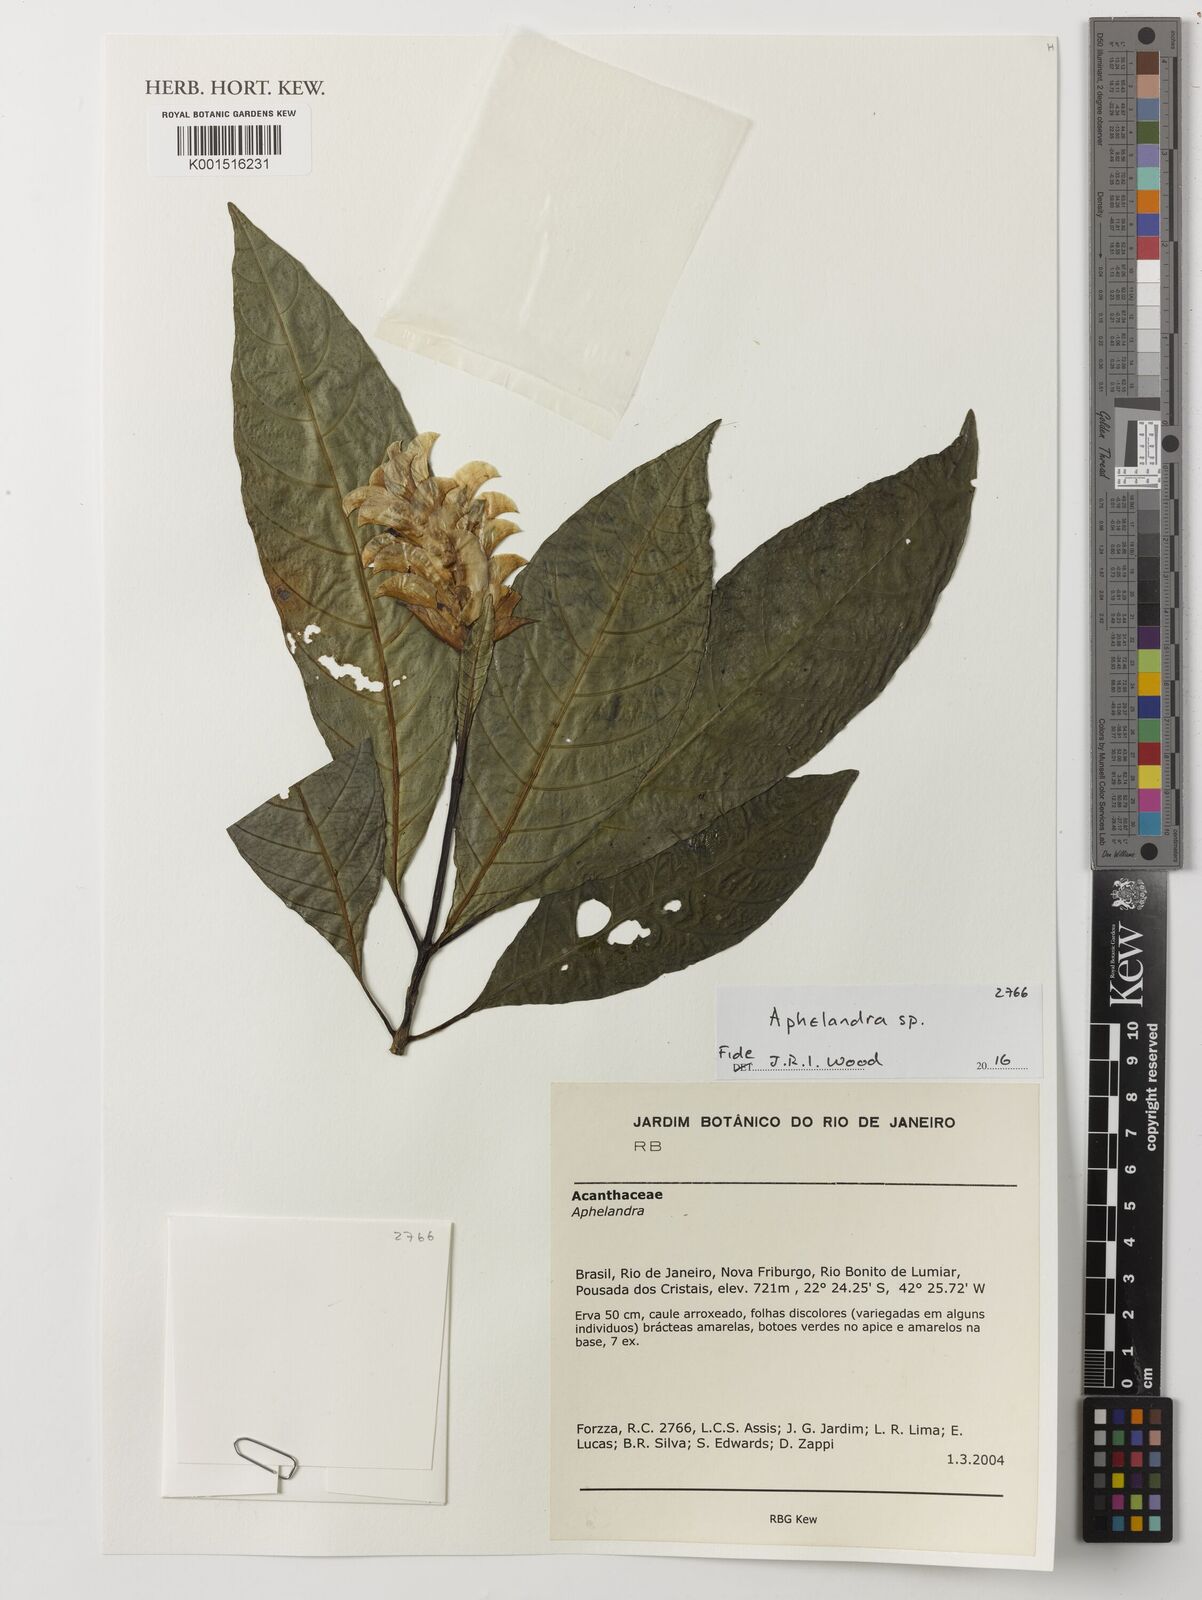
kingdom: Plantae
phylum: Tracheophyta
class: Magnoliopsida
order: Lamiales
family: Acanthaceae
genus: Aphelandra
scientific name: Aphelandra
